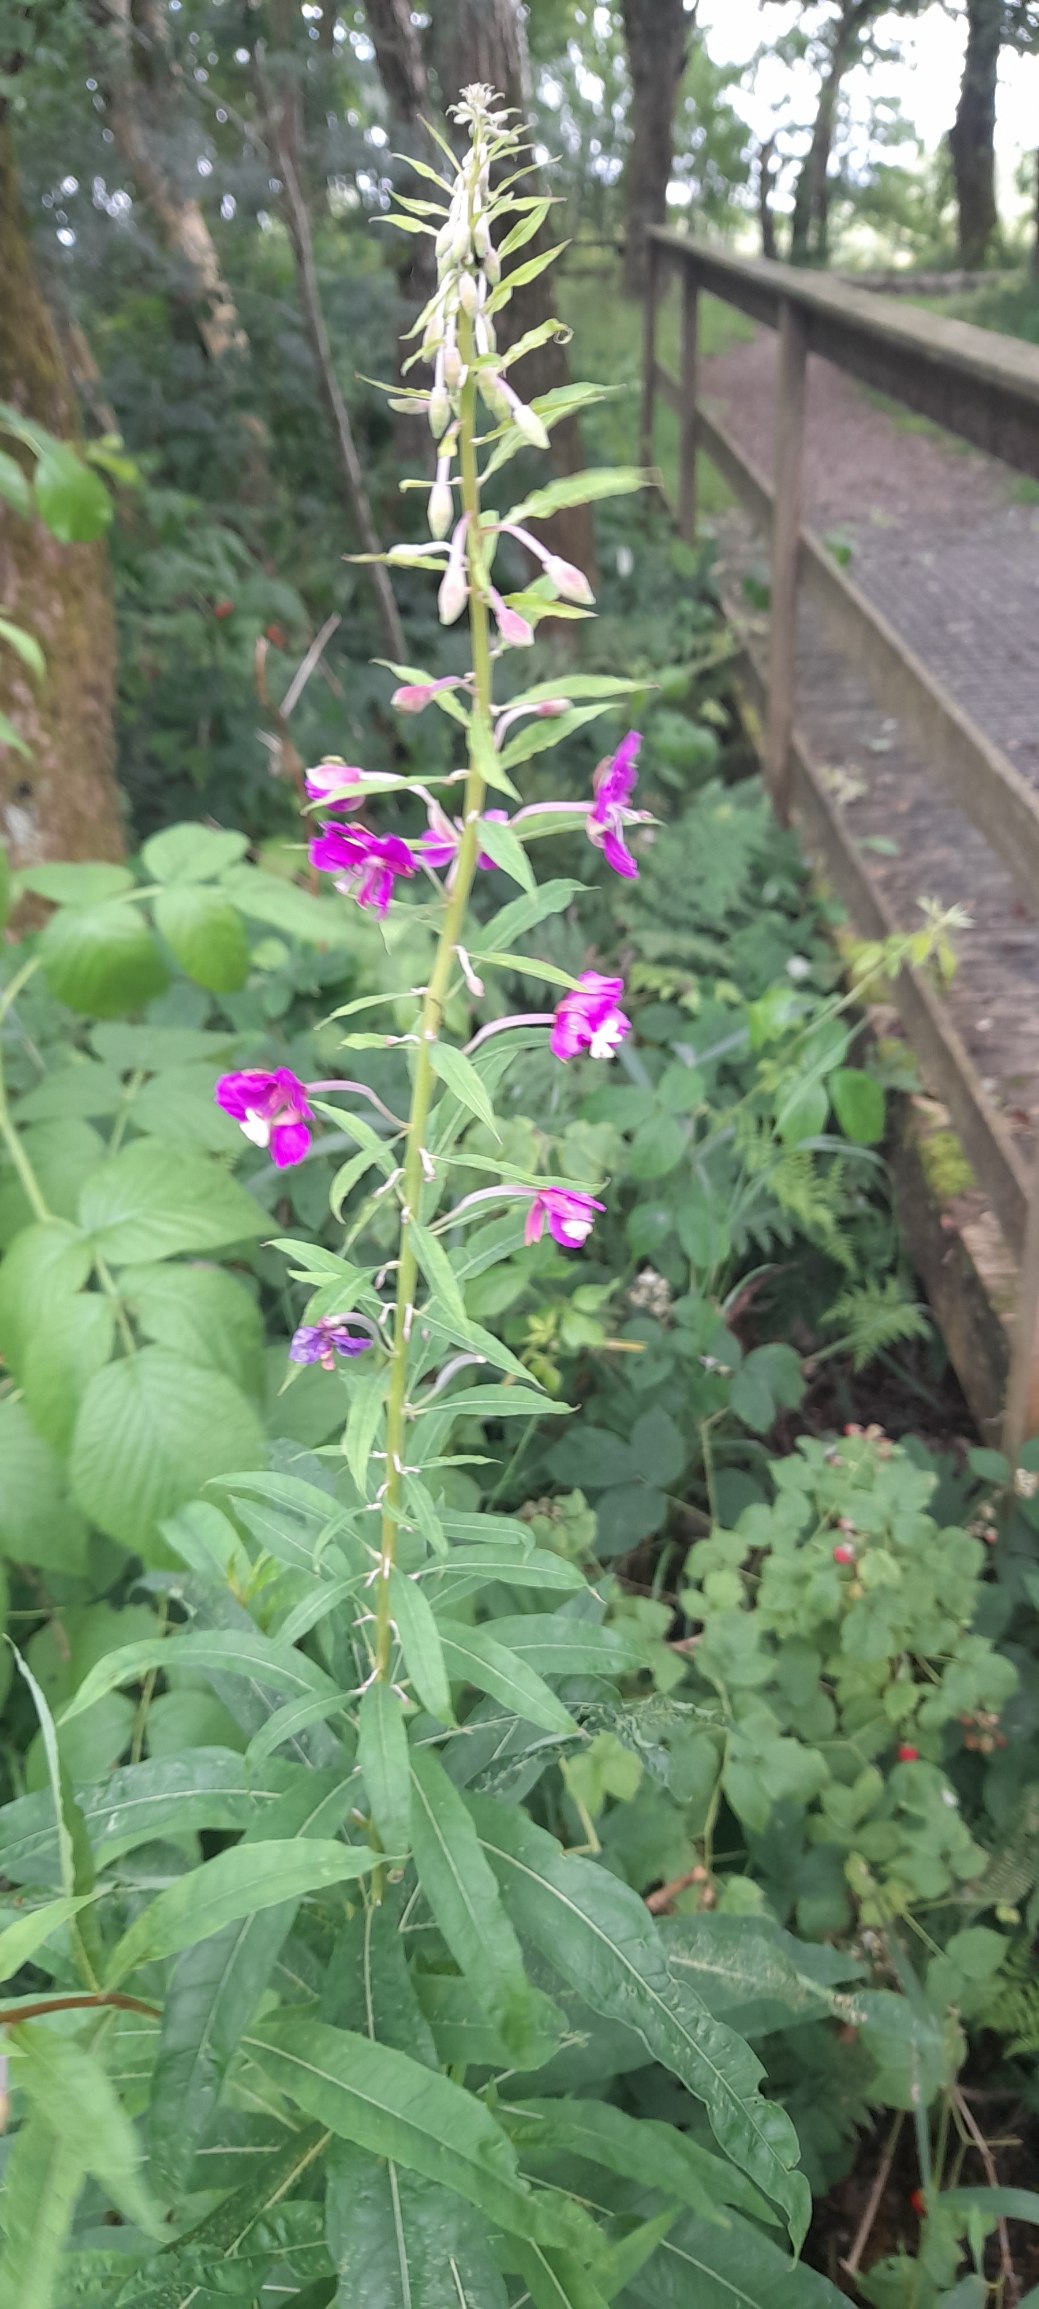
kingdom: Plantae
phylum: Tracheophyta
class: Magnoliopsida
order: Myrtales
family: Onagraceae
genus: Chamaenerion
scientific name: Chamaenerion angustifolium
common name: Gederams
